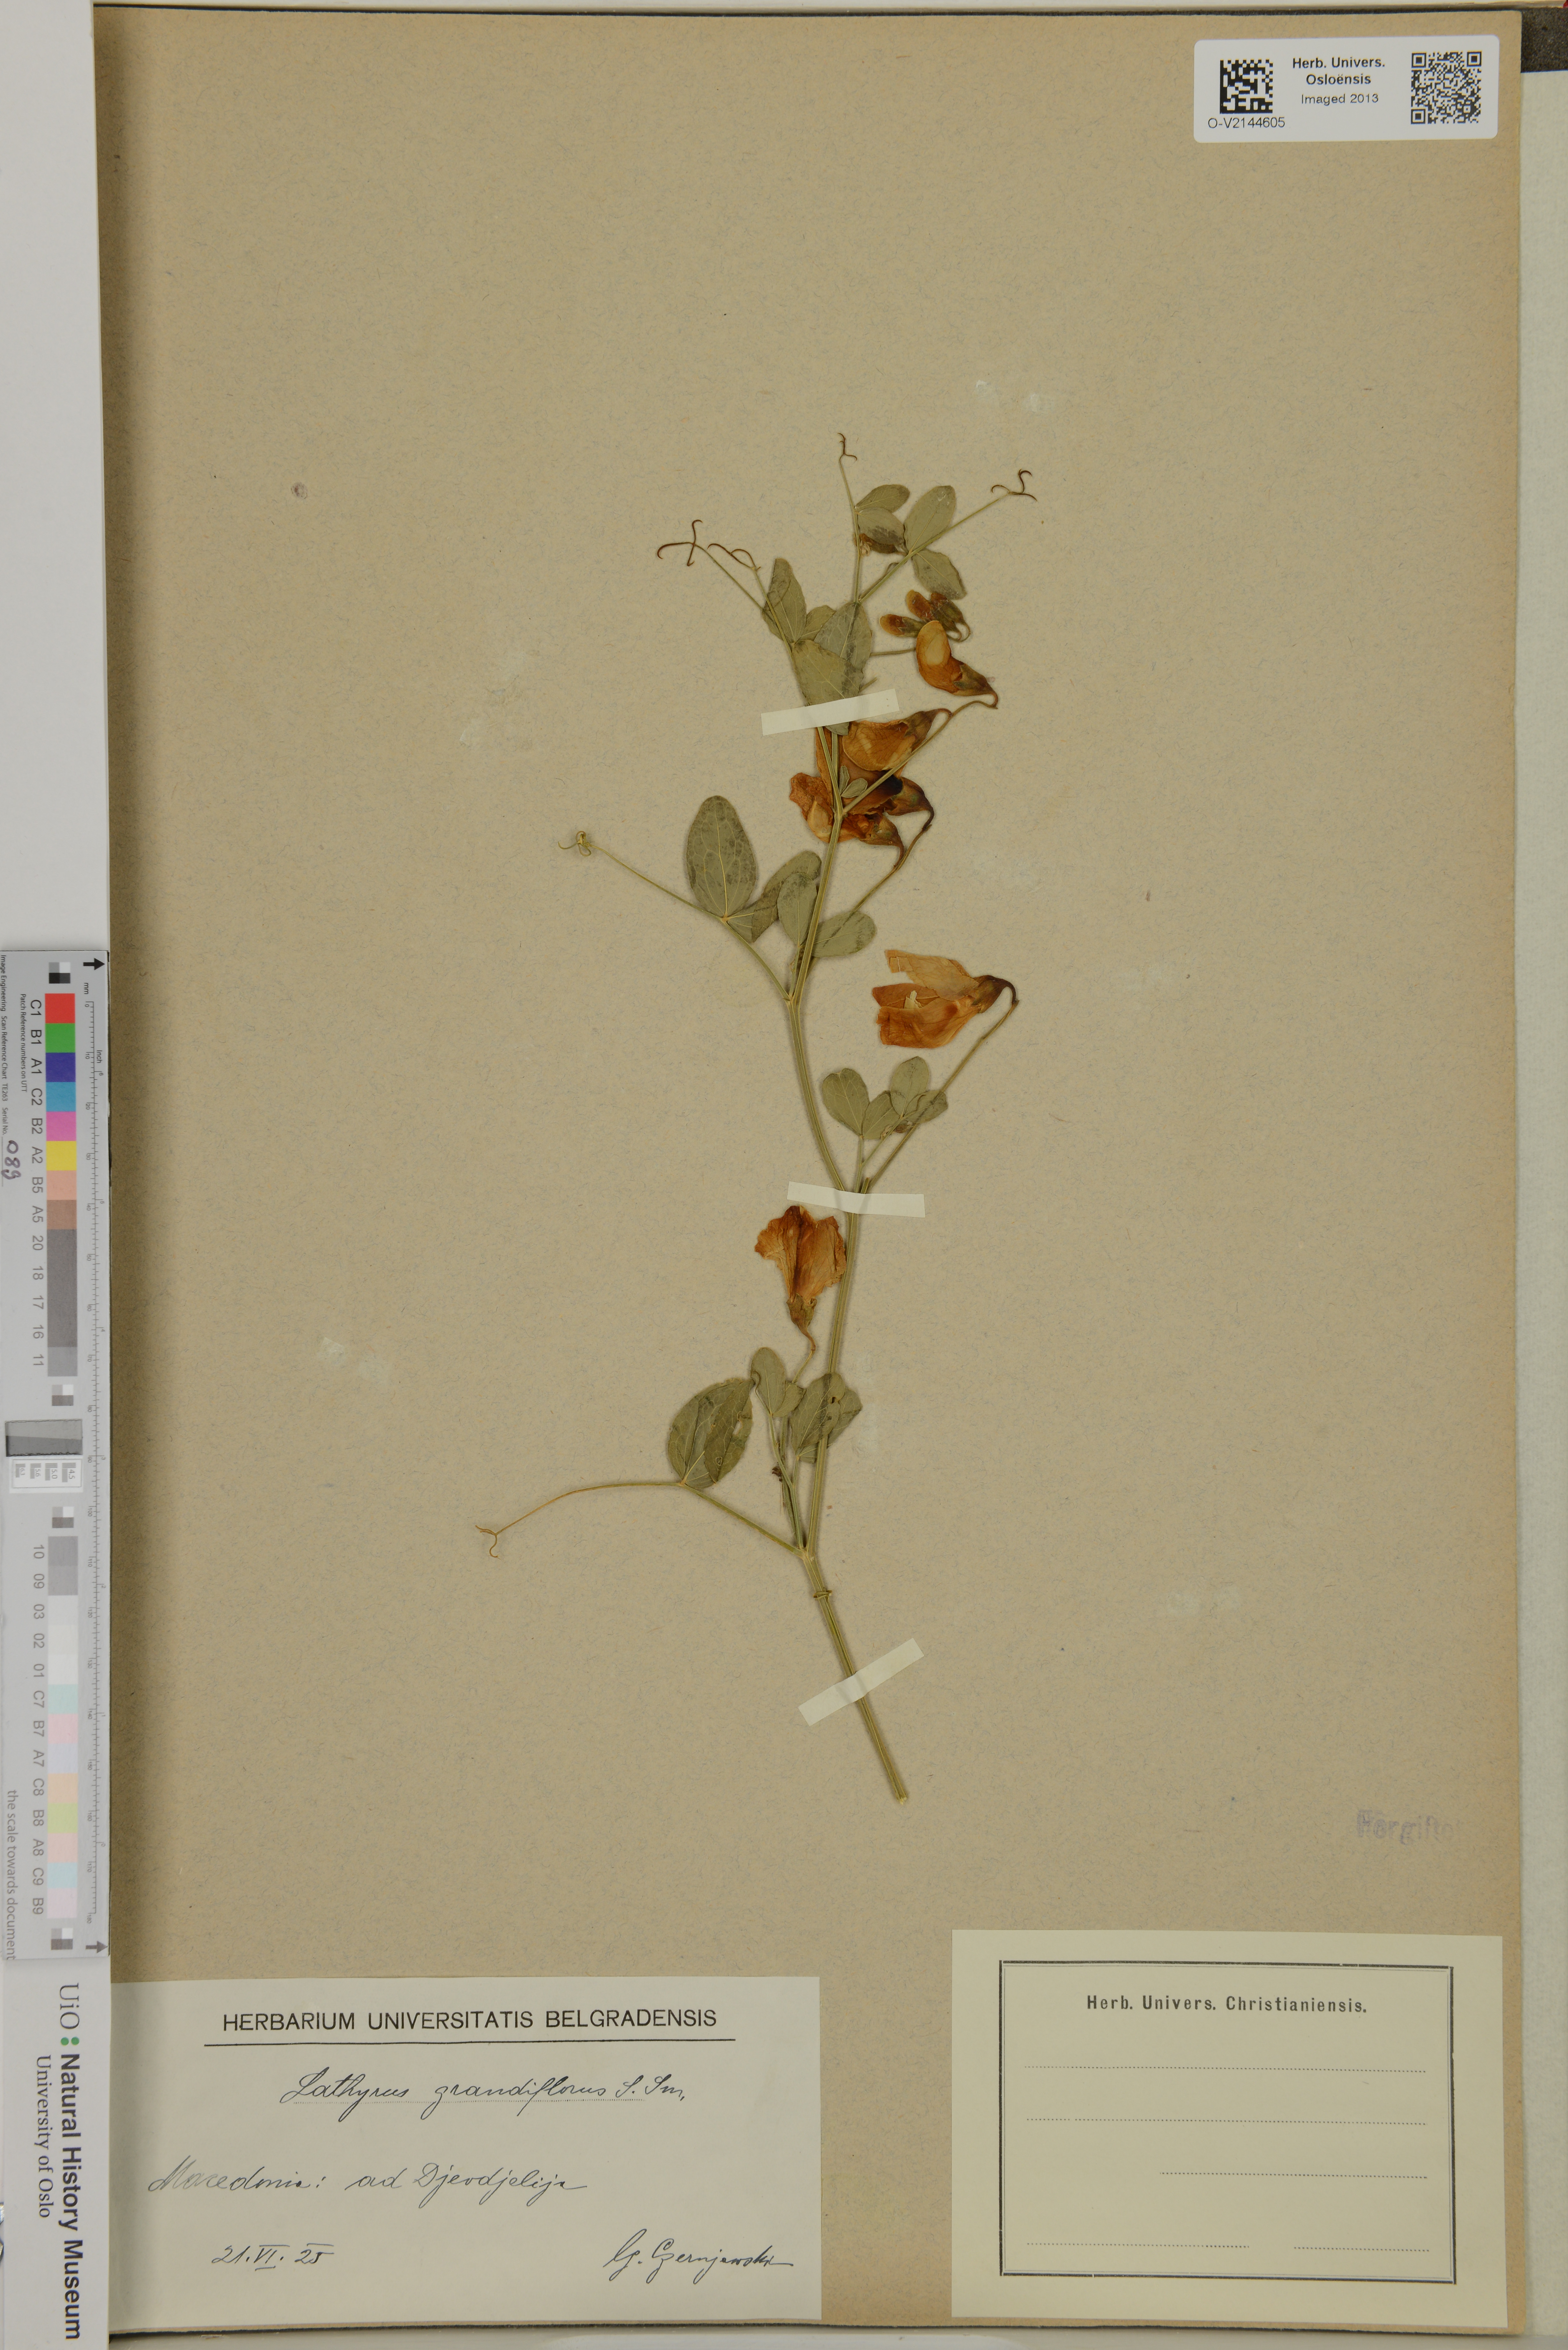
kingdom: Plantae
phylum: Tracheophyta
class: Magnoliopsida
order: Fabales
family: Fabaceae
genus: Lathyrus
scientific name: Lathyrus grandiflorus
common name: Two-flowered everlasting-pea
